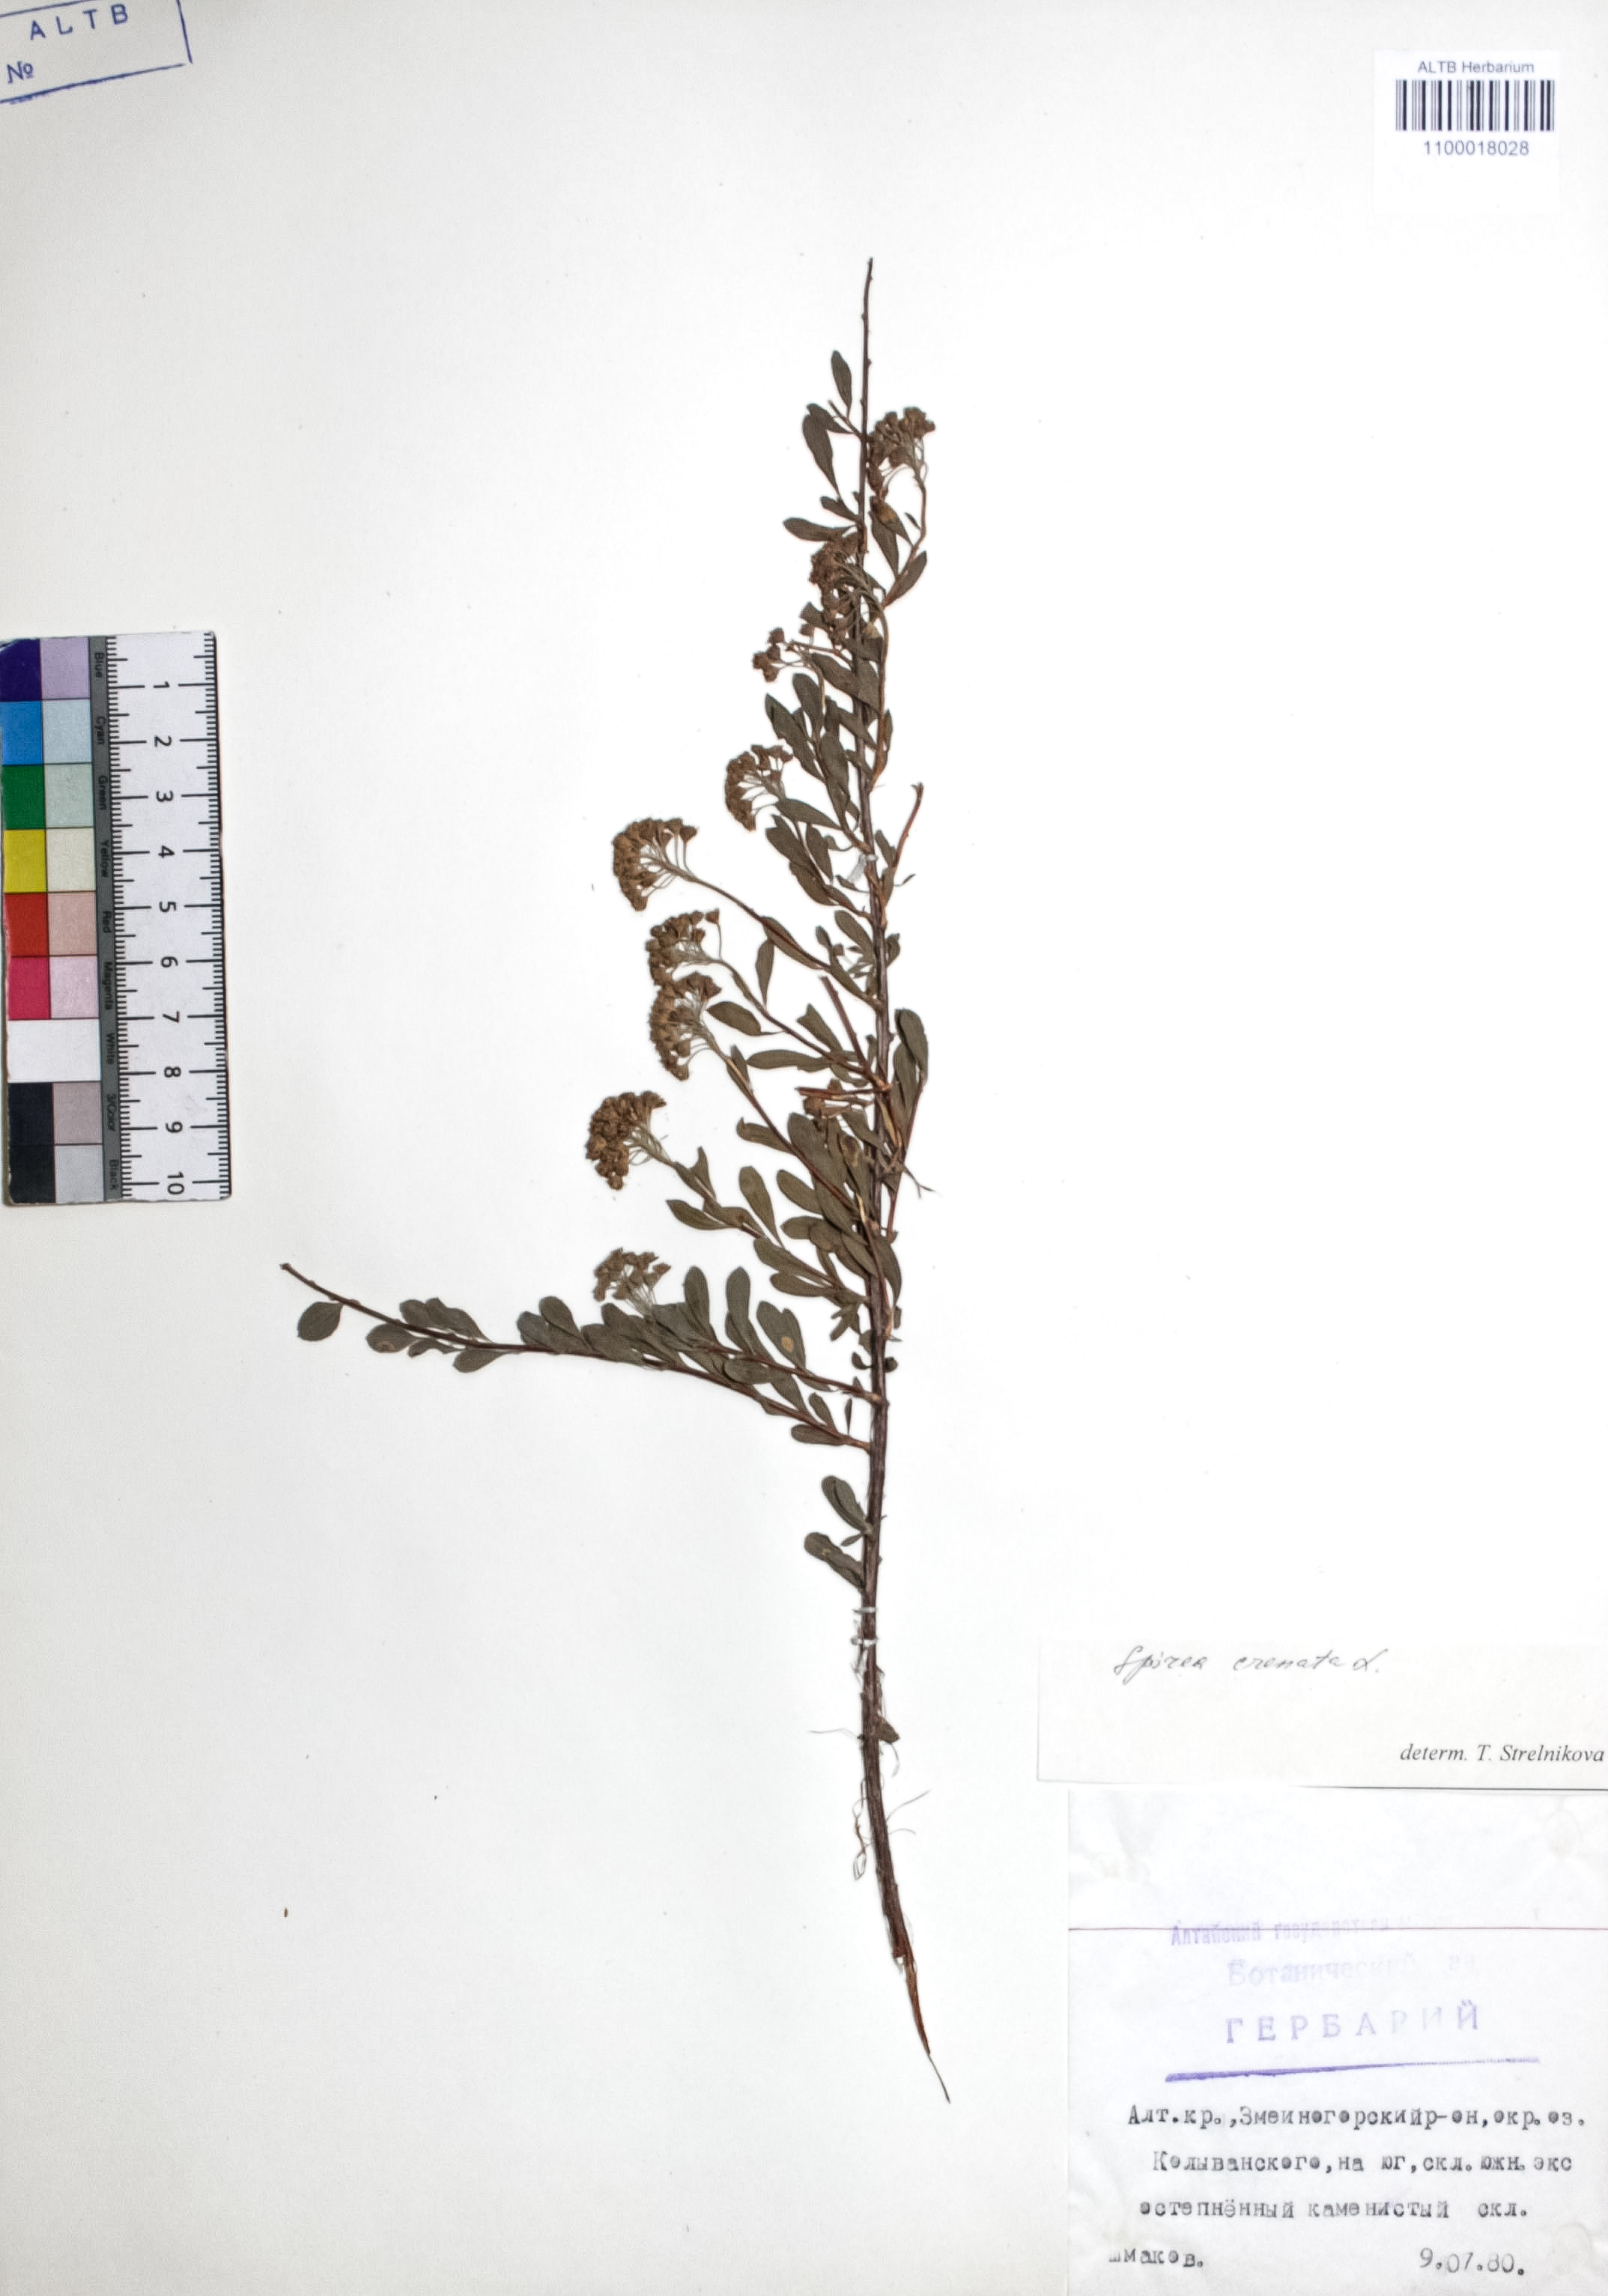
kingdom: Plantae
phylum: Tracheophyta
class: Magnoliopsida
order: Rosales
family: Rosaceae
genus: Spiraea
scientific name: Spiraea crenata
